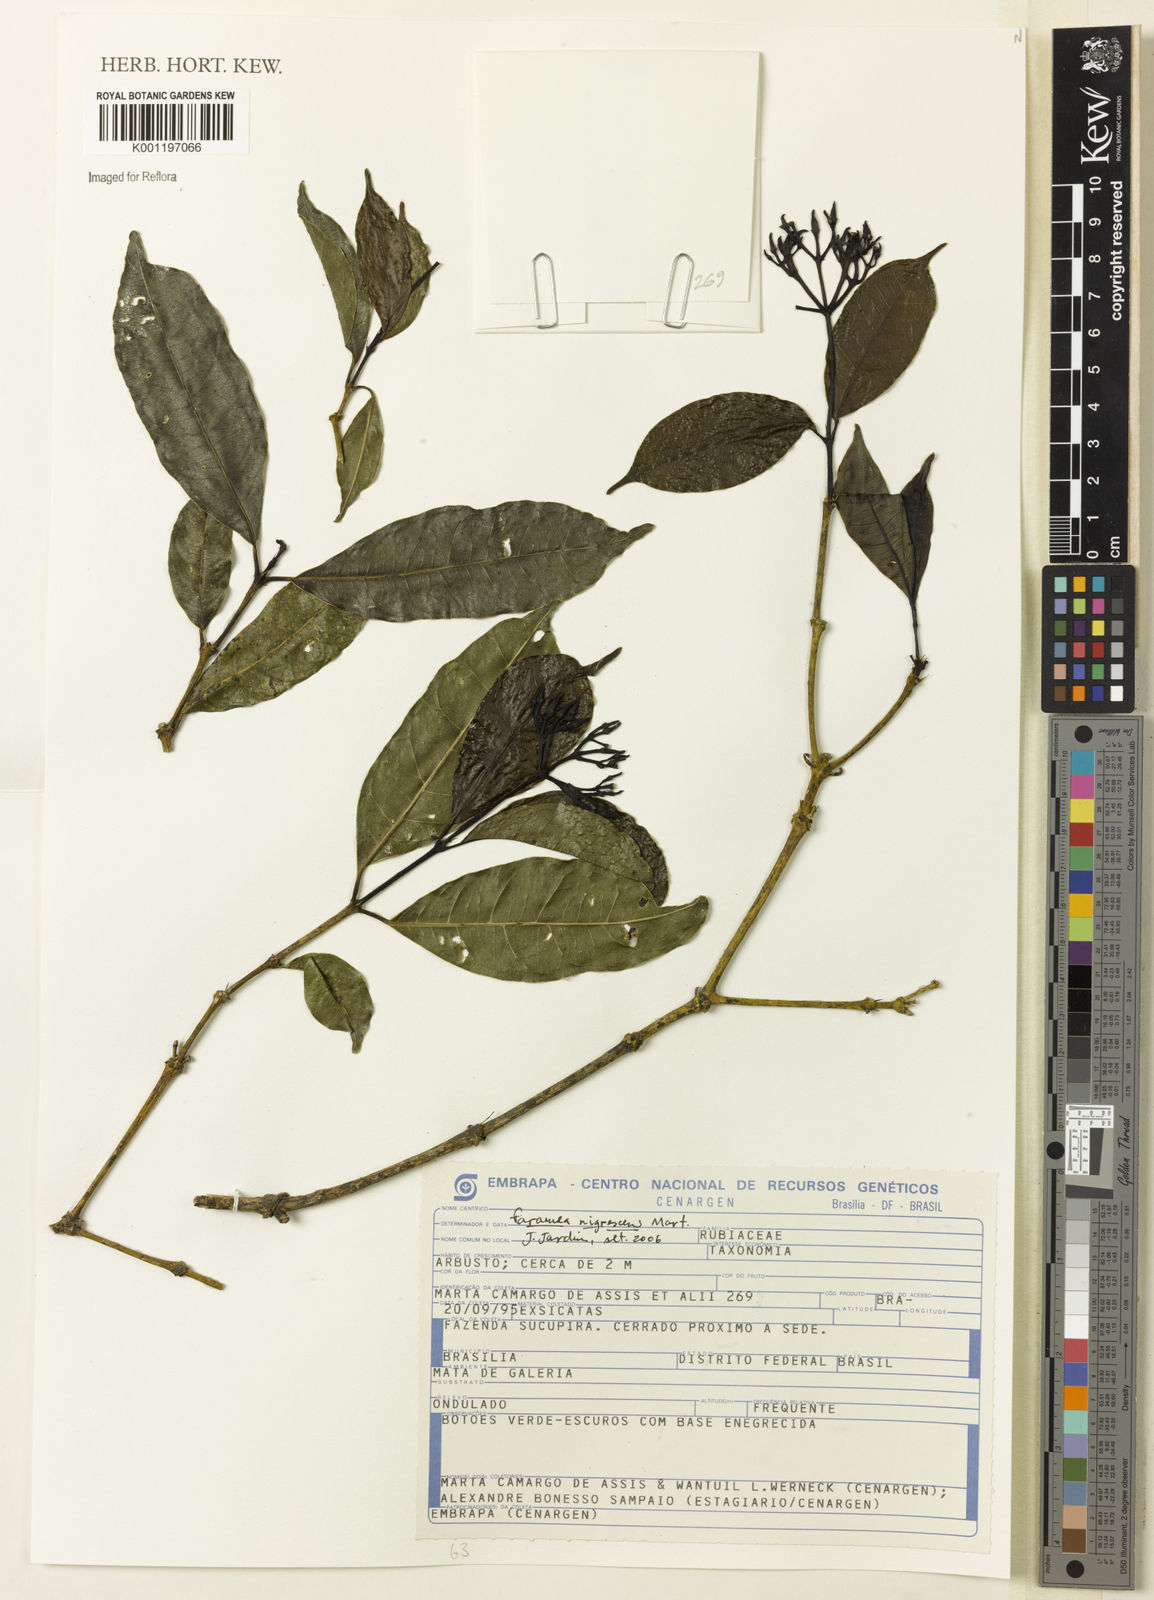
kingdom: Plantae
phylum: Tracheophyta
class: Magnoliopsida
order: Gentianales
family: Rubiaceae
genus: Faramea
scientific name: Faramea nigrescens
